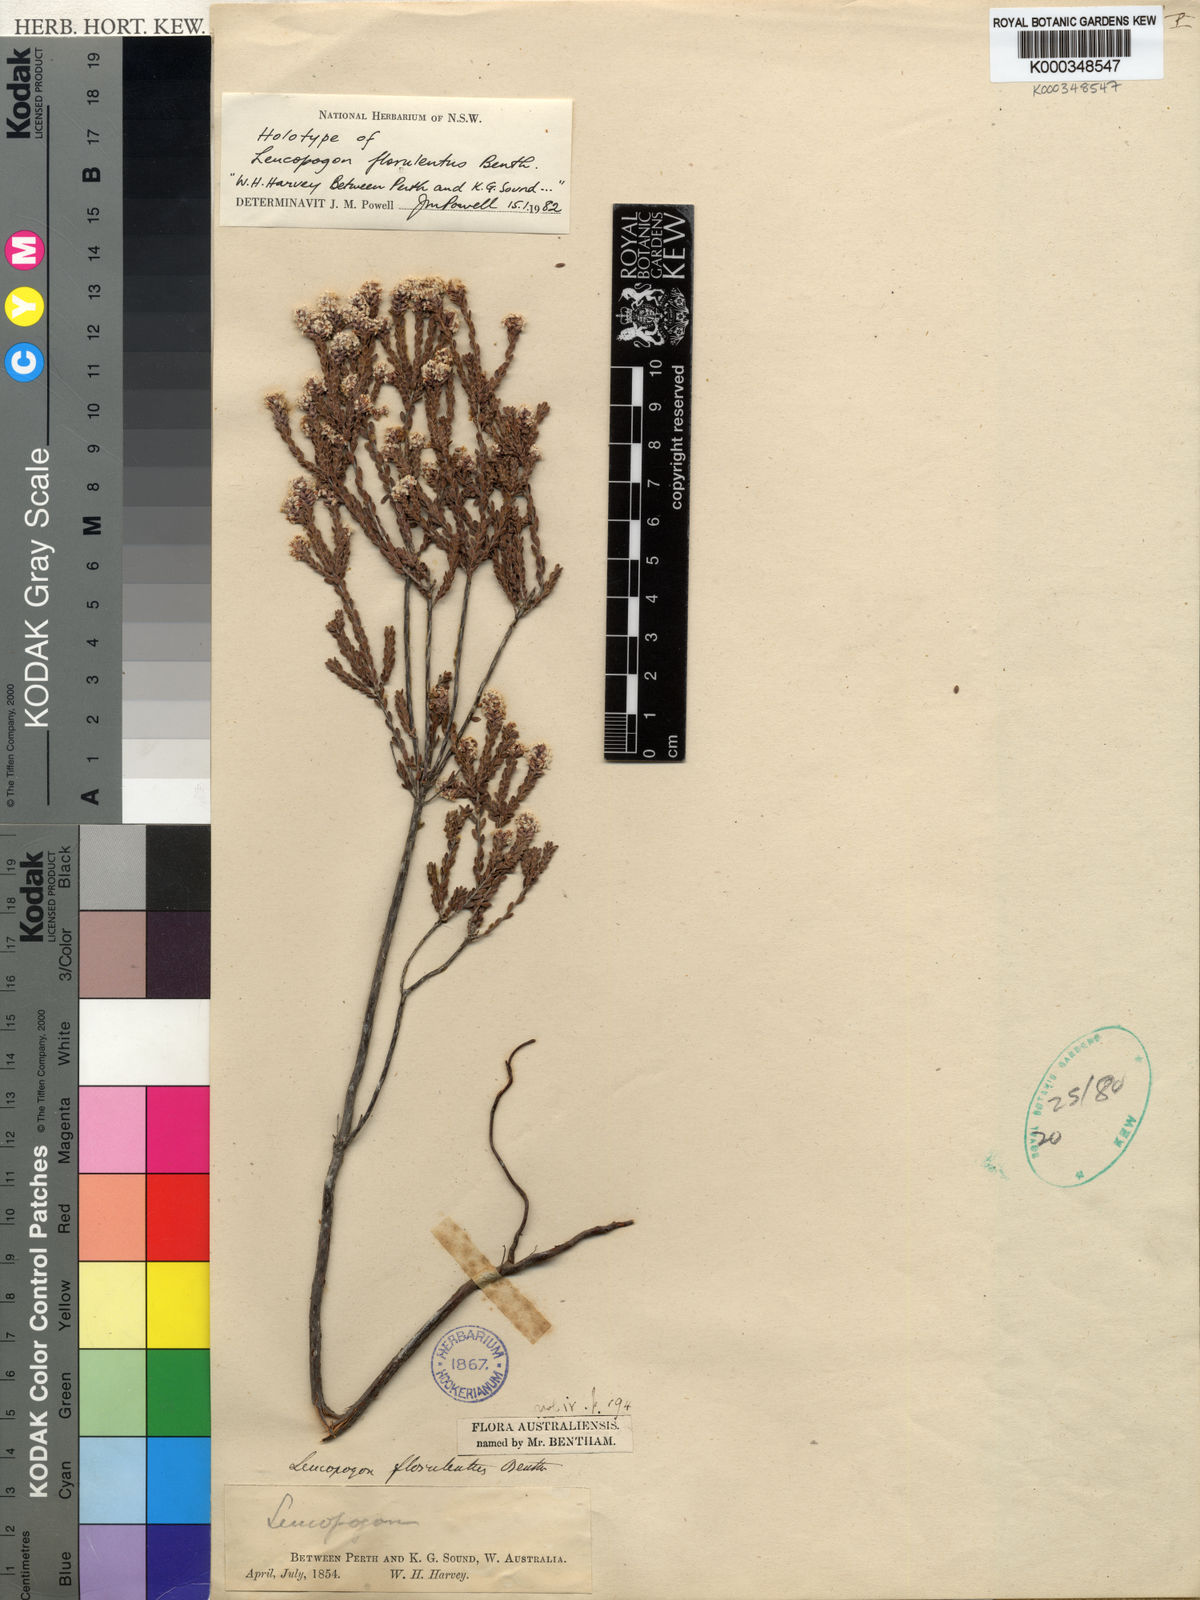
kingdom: Plantae
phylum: Tracheophyta
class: Magnoliopsida
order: Ericales
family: Ericaceae
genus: Leucopogon
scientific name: Leucopogon florulentus
